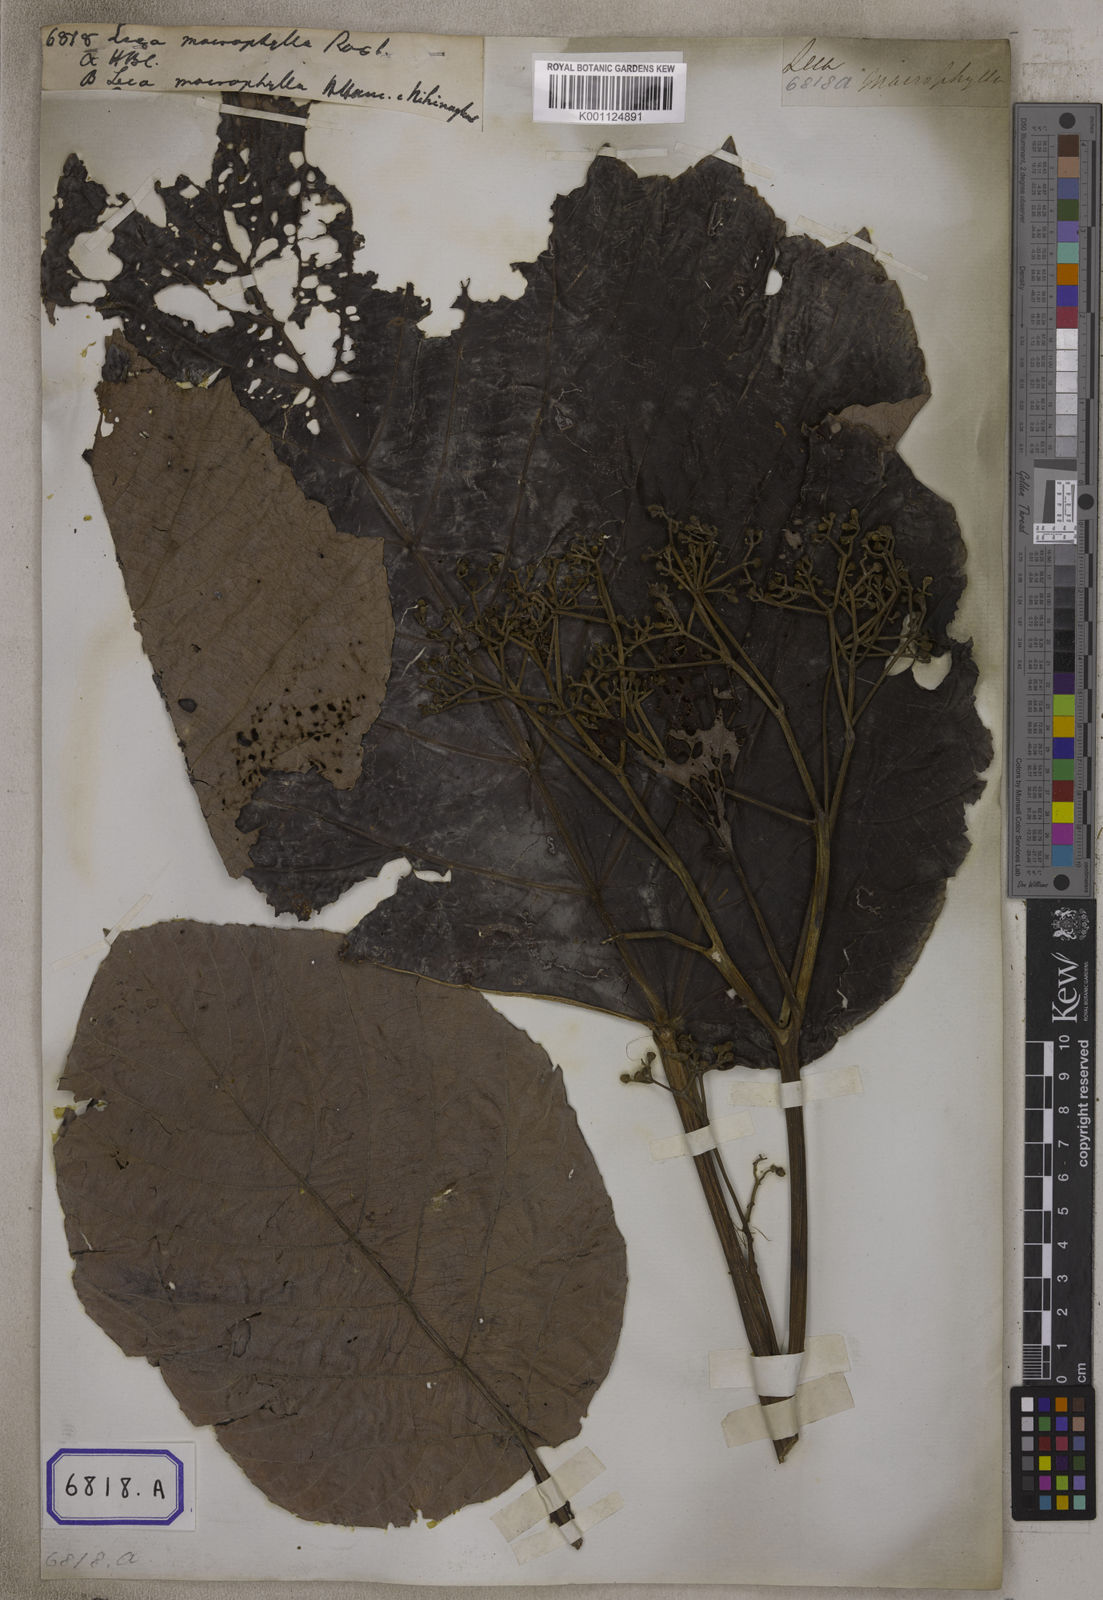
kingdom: Plantae
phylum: Tracheophyta
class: Magnoliopsida
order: Vitales
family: Vitaceae
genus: Leea
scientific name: Leea macrophylla
